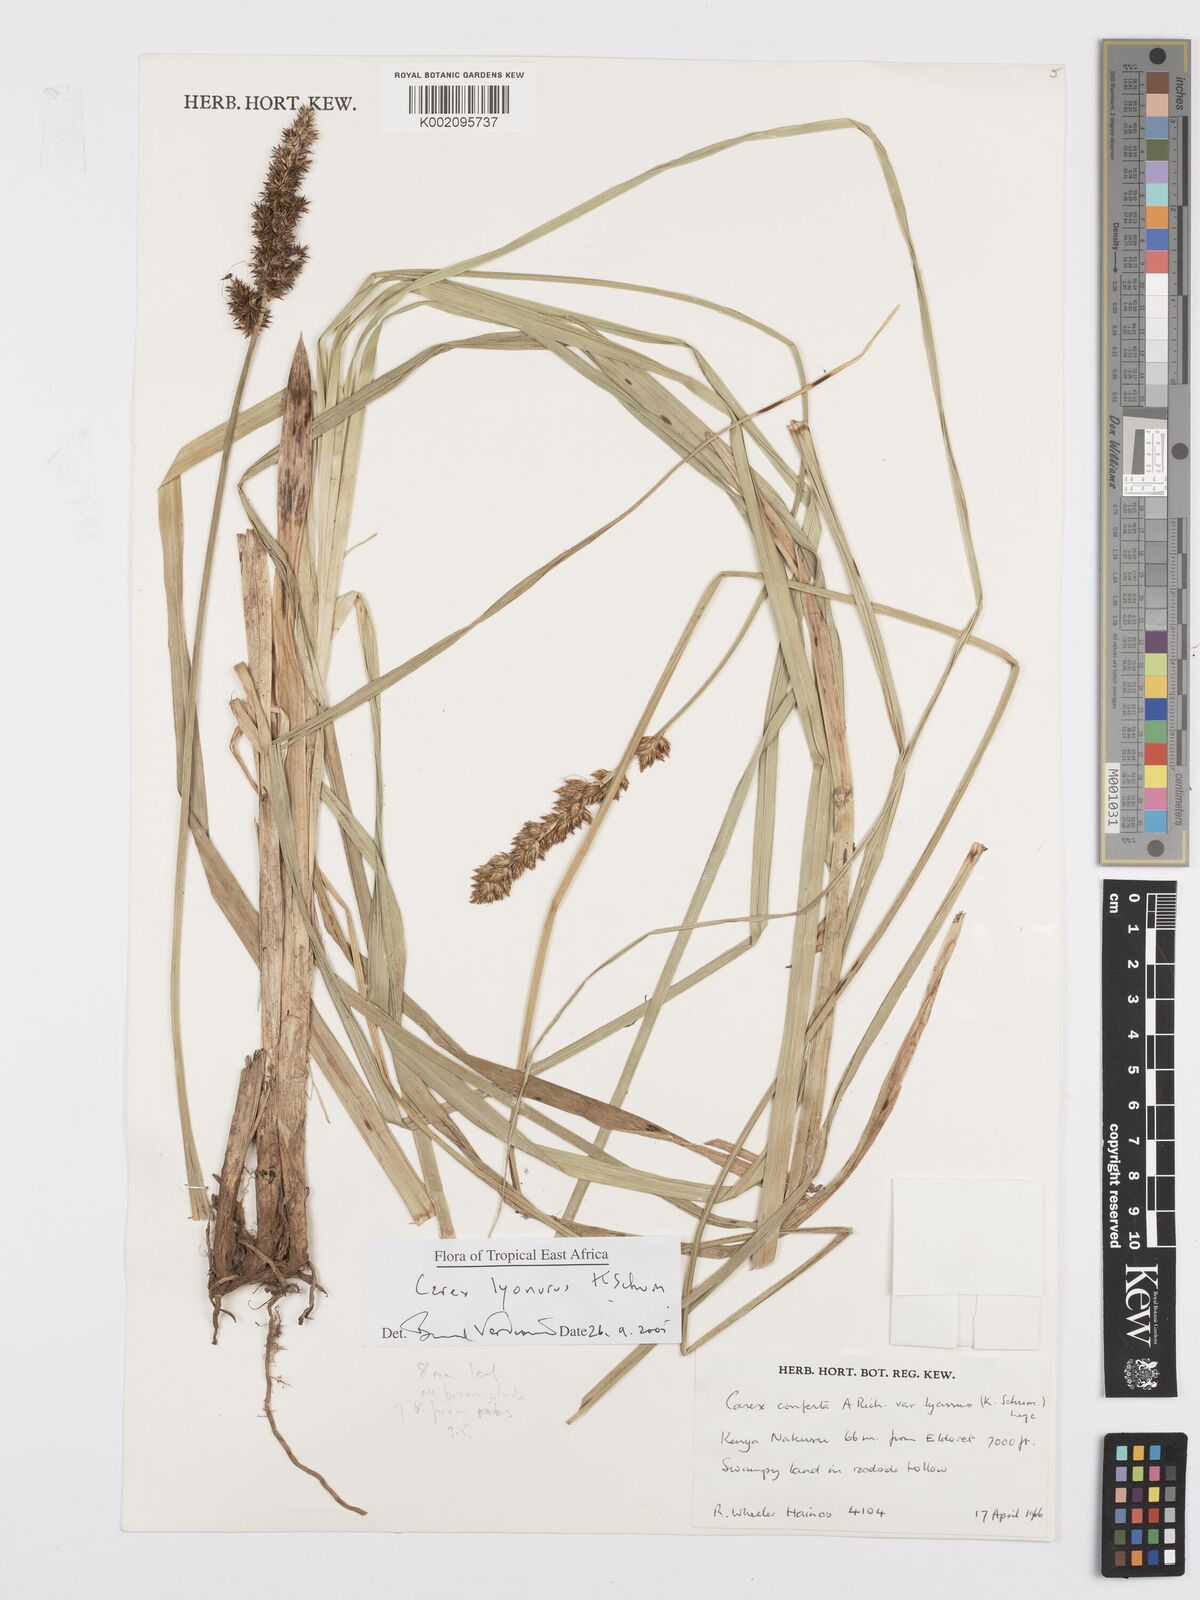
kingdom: Plantae
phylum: Tracheophyta
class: Liliopsida
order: Poales
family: Cyperaceae
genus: Carex
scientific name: Carex lycurus
